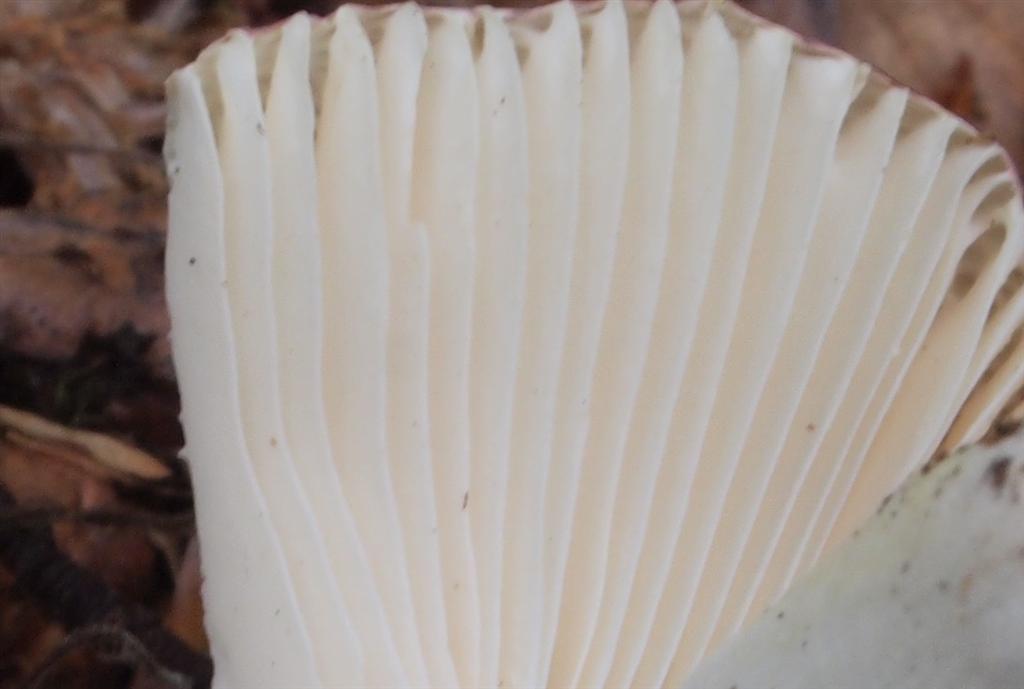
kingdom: Fungi
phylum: Basidiomycota
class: Agaricomycetes
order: Russulales
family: Russulaceae
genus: Russula
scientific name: Russula atropurpurea
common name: purpurbroget skørhat
